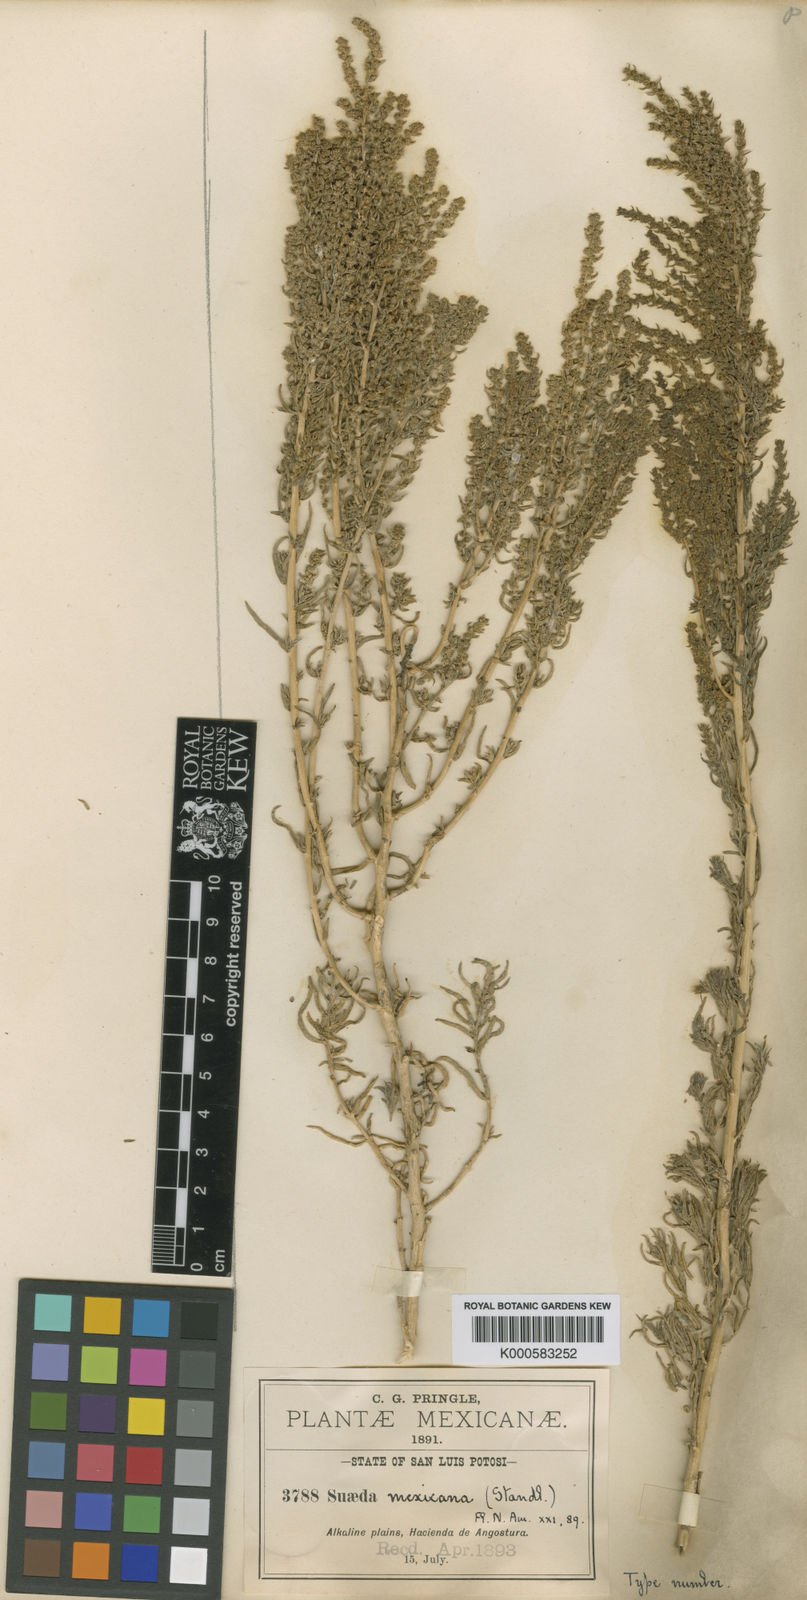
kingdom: Plantae
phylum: Tracheophyta
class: Magnoliopsida
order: Caryophyllales
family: Amaranthaceae
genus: Suaeda
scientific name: Suaeda mexicana
